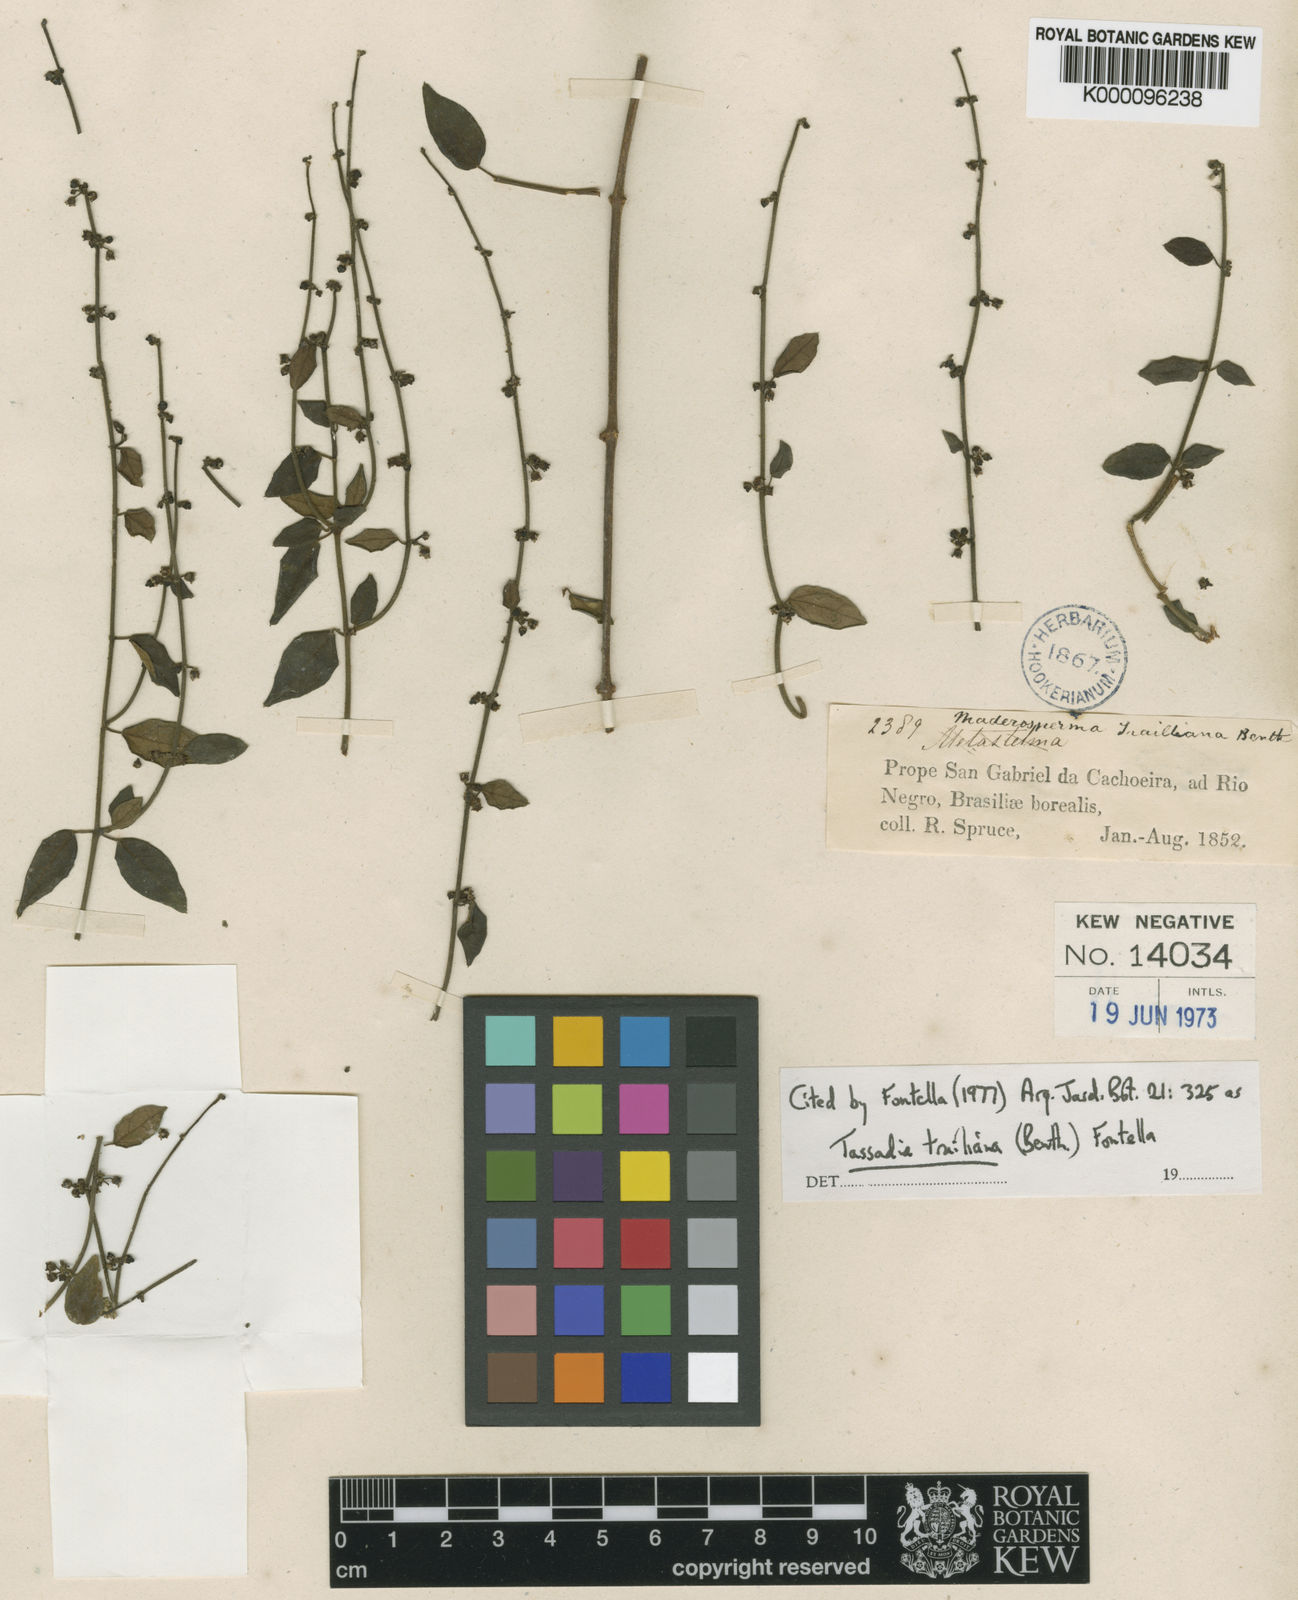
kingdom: Plantae
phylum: Tracheophyta
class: Magnoliopsida
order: Gentianales
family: Apocynaceae
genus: Tassadia
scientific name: Tassadia trailiana
